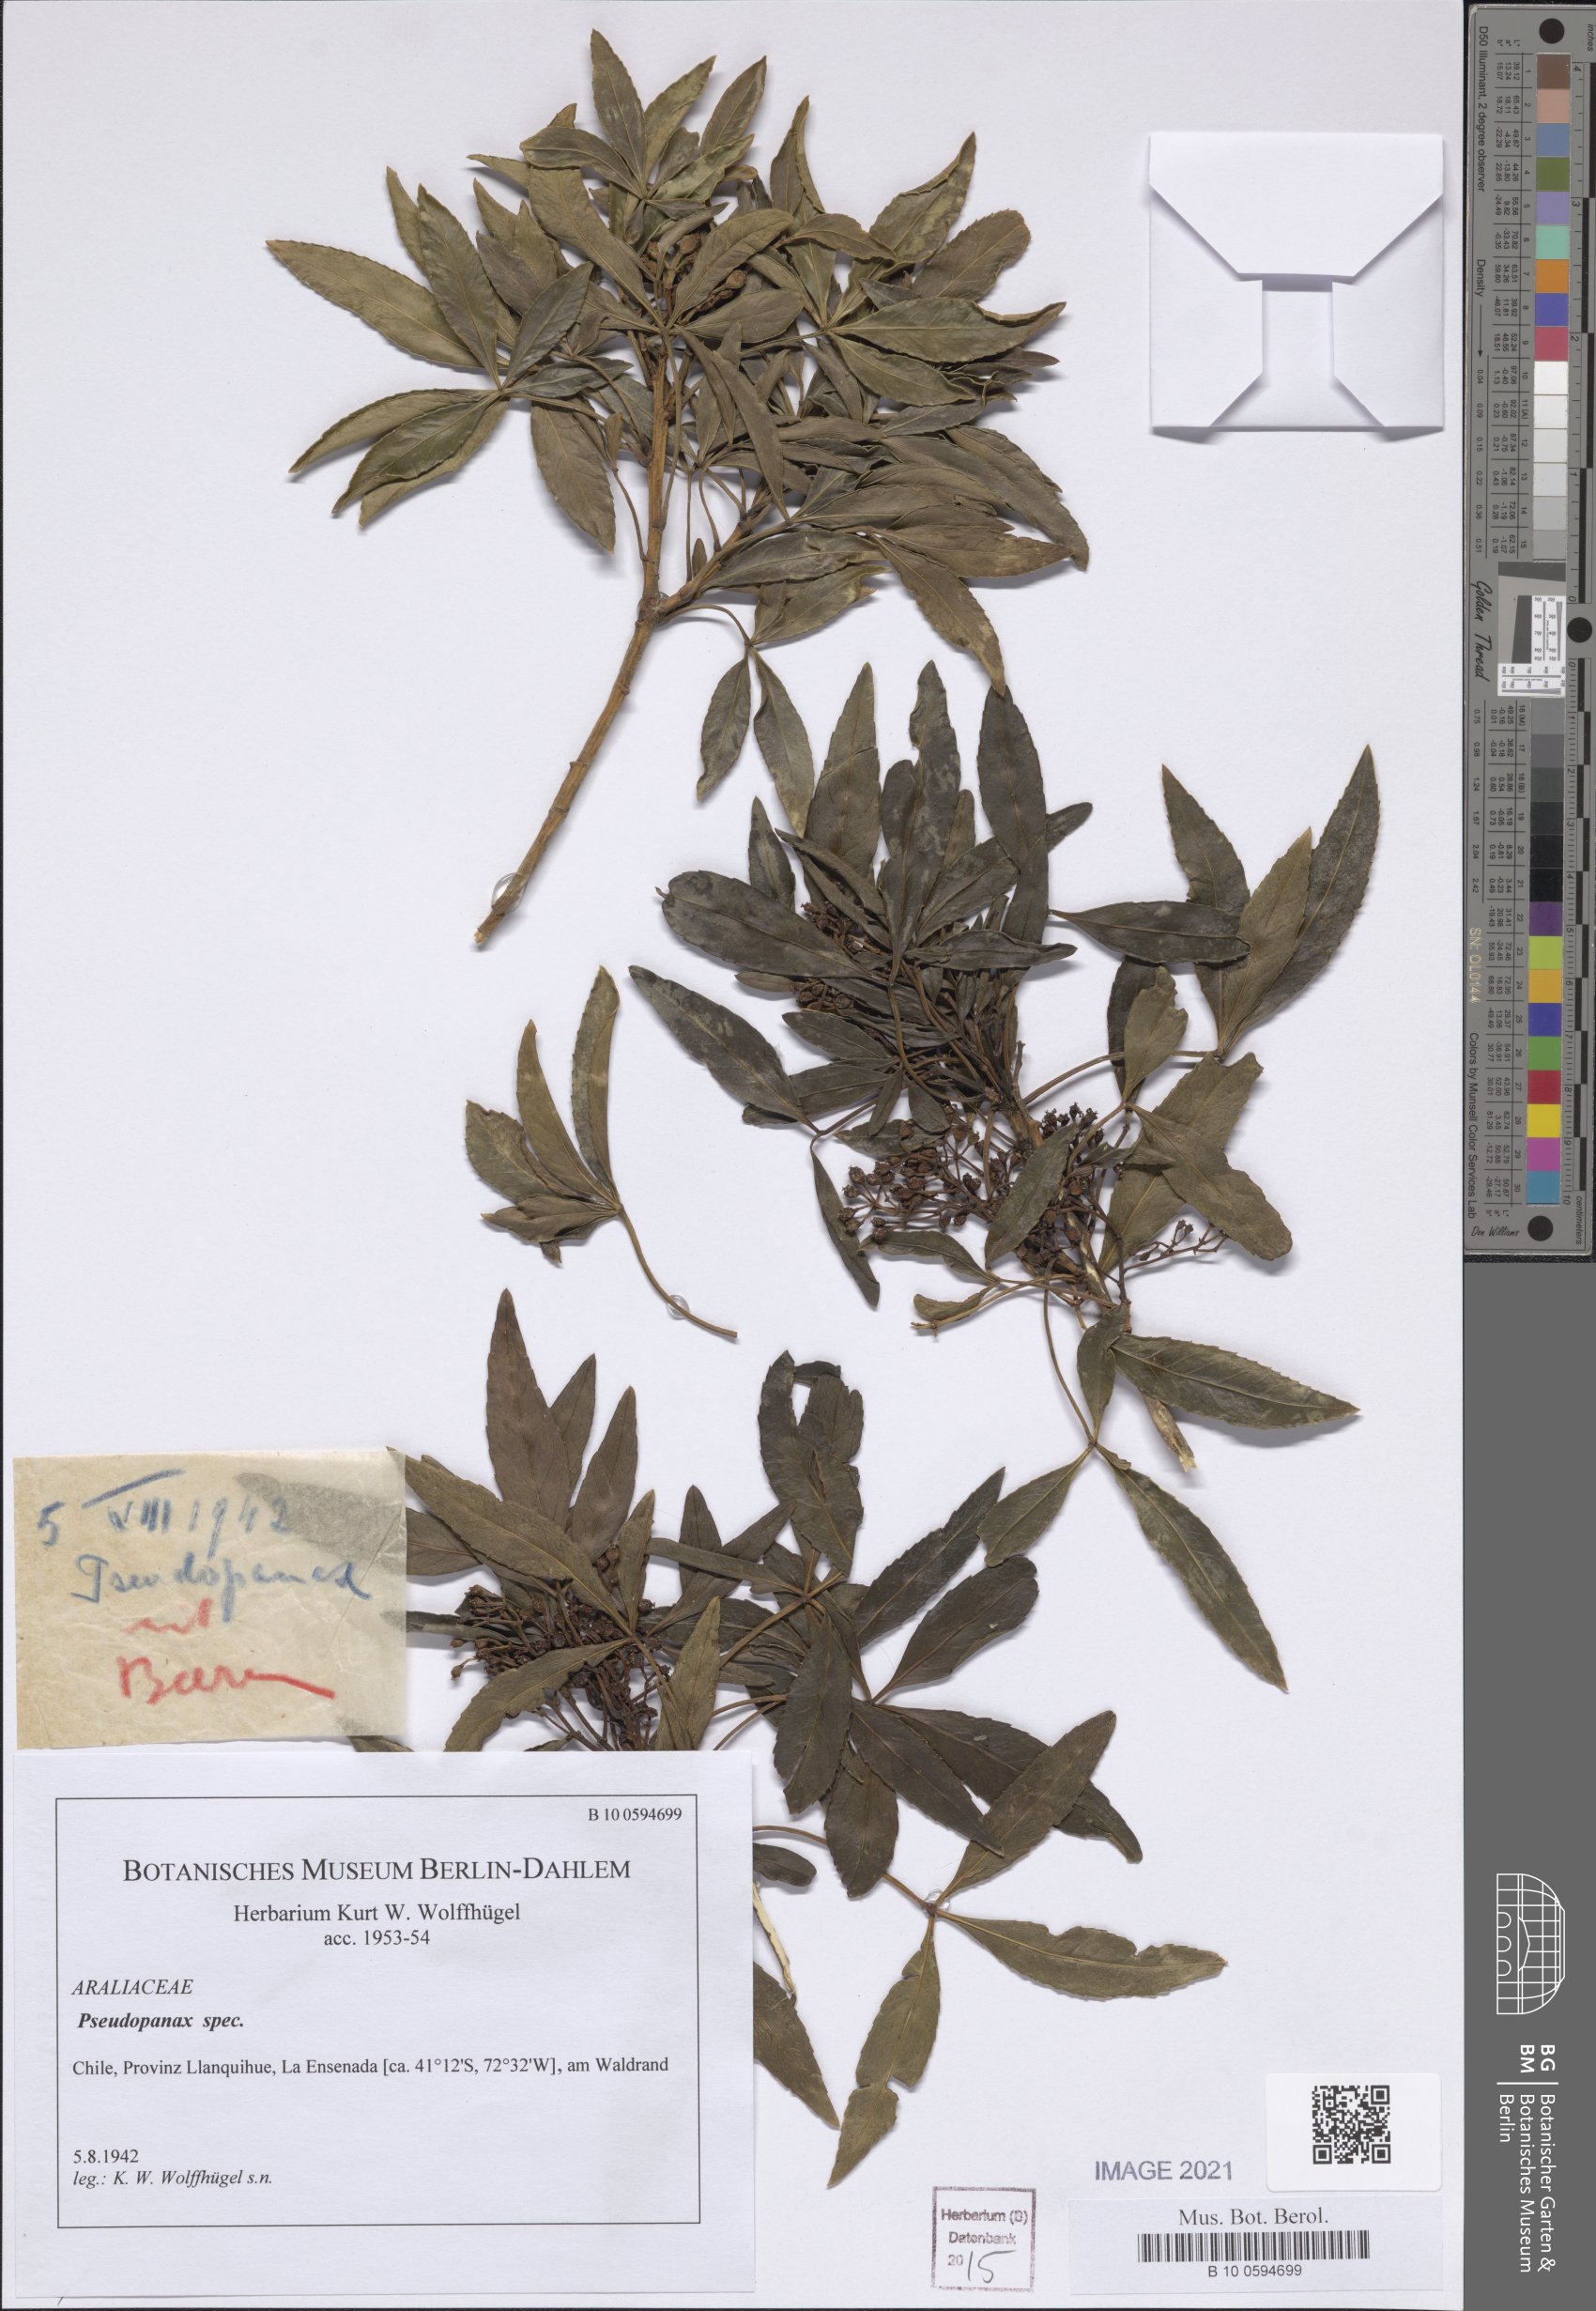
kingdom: Plantae
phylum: Tracheophyta
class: Magnoliopsida
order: Apiales
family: Araliaceae
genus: Pseudopanax
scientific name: Pseudopanax
